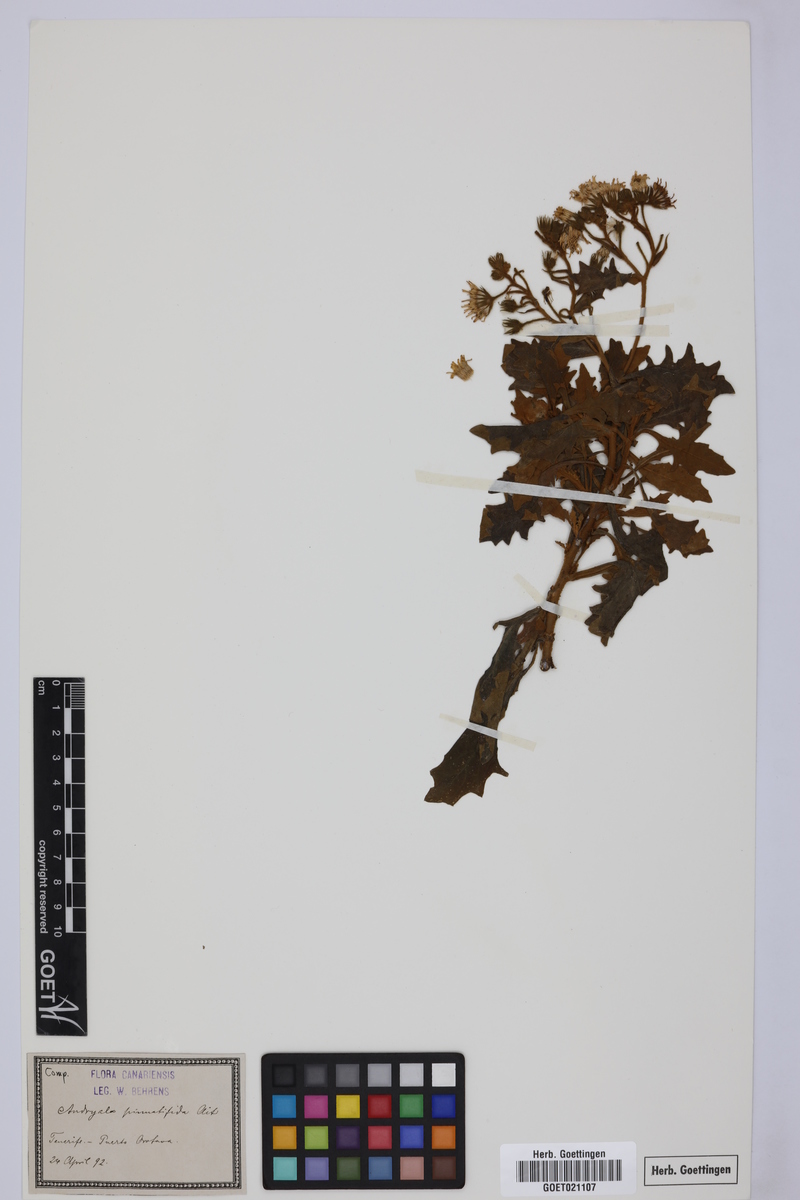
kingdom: Plantae
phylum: Tracheophyta
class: Magnoliopsida
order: Asterales
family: Asteraceae
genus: Andryala
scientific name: Andryala pinnatifida
